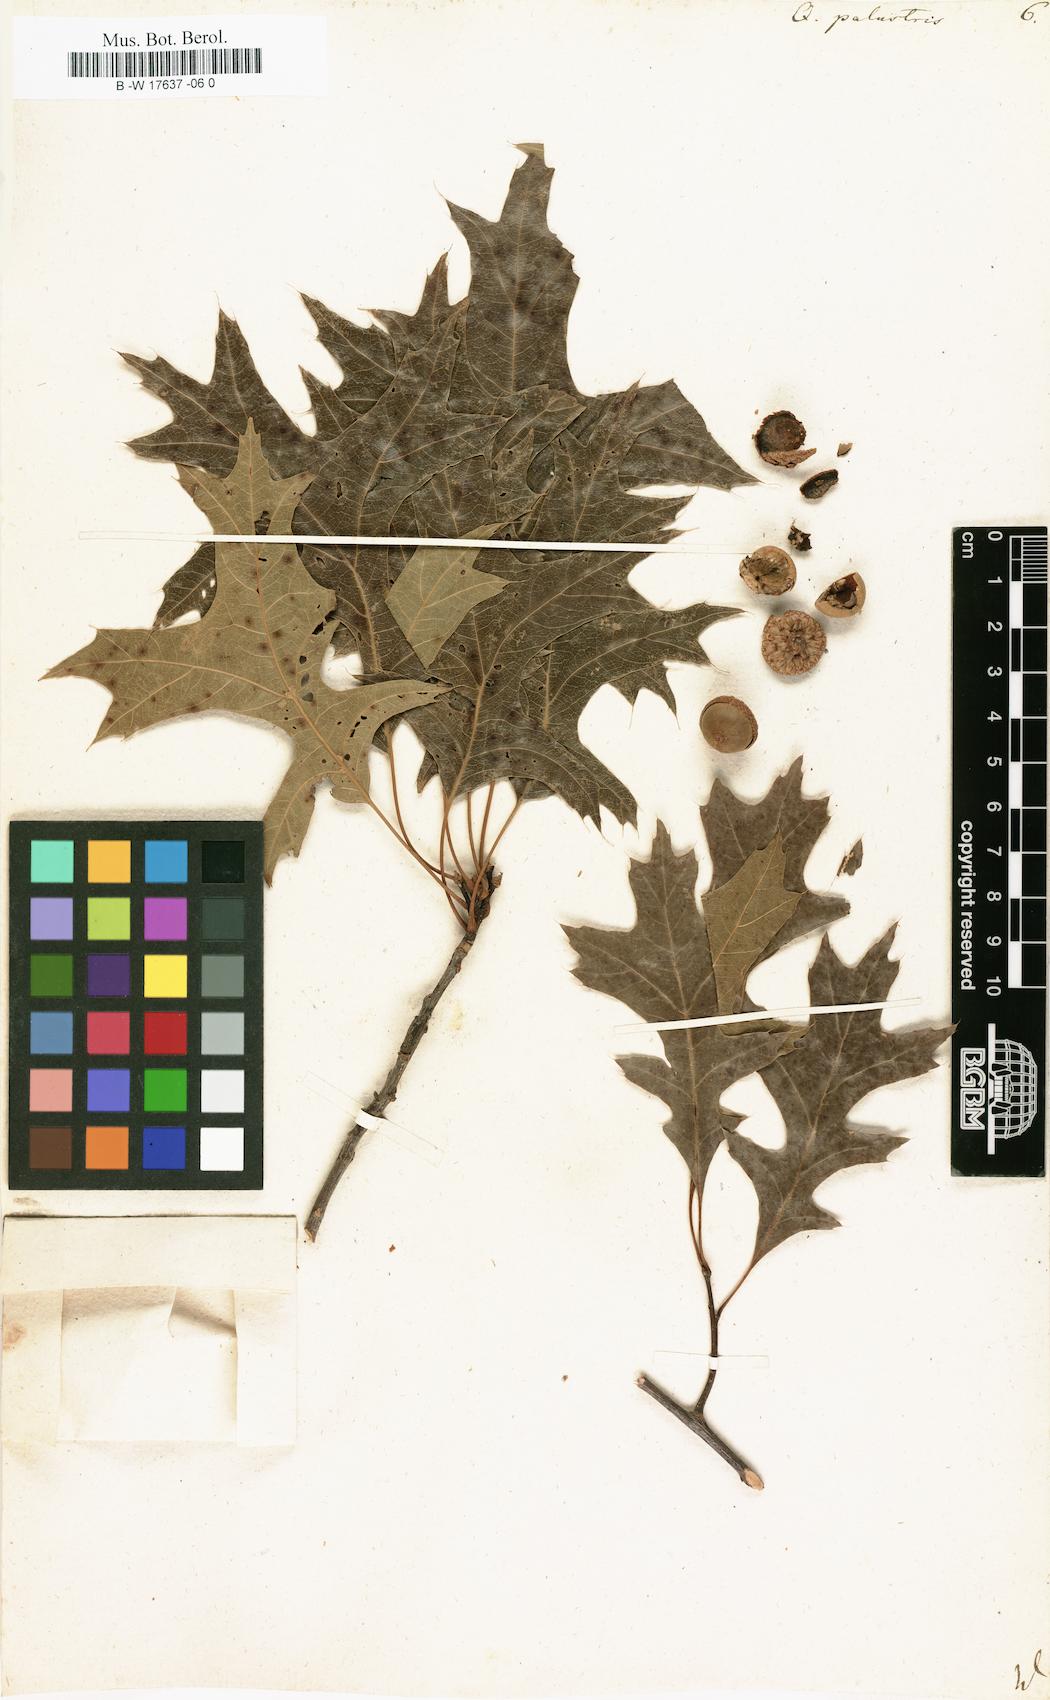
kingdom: Plantae
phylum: Tracheophyta
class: Magnoliopsida
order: Fagales
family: Fagaceae
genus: Quercus
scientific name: Quercus palustris
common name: Pin oak
